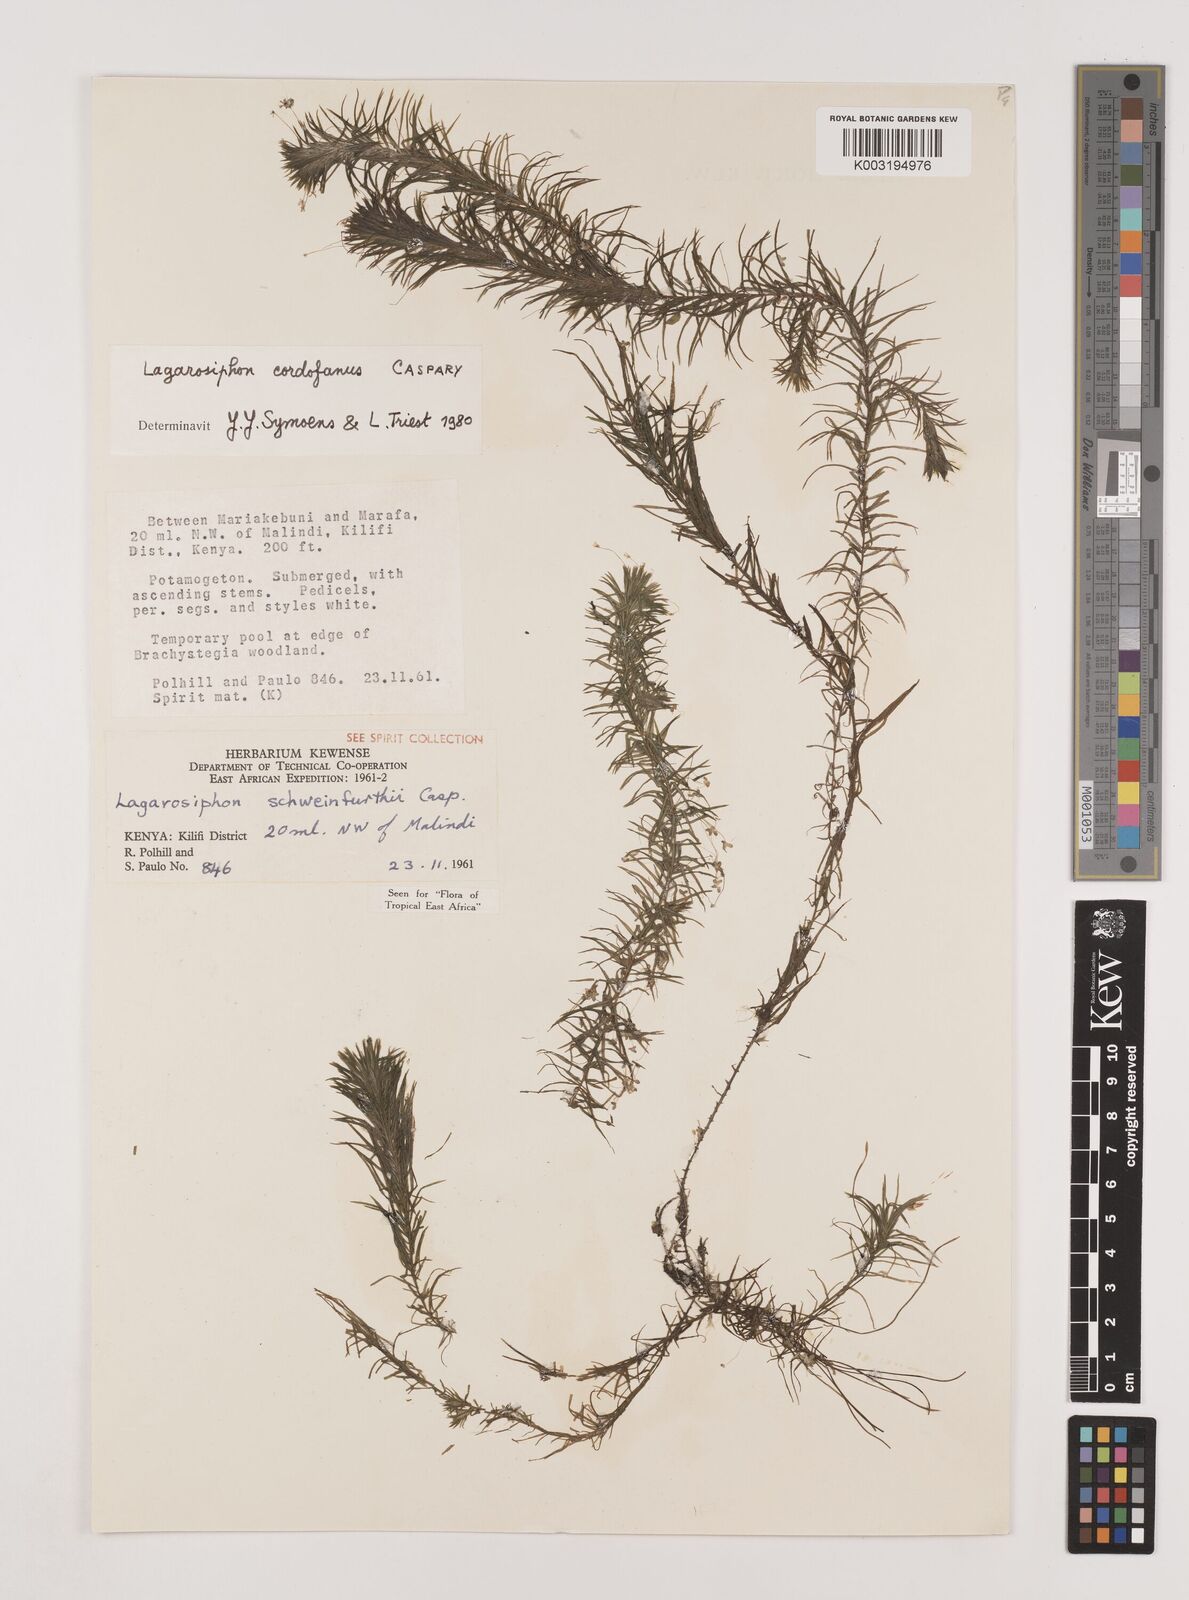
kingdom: Plantae
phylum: Tracheophyta
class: Liliopsida
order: Alismatales
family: Hydrocharitaceae
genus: Lagarosiphon
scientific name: Lagarosiphon cordofanus
